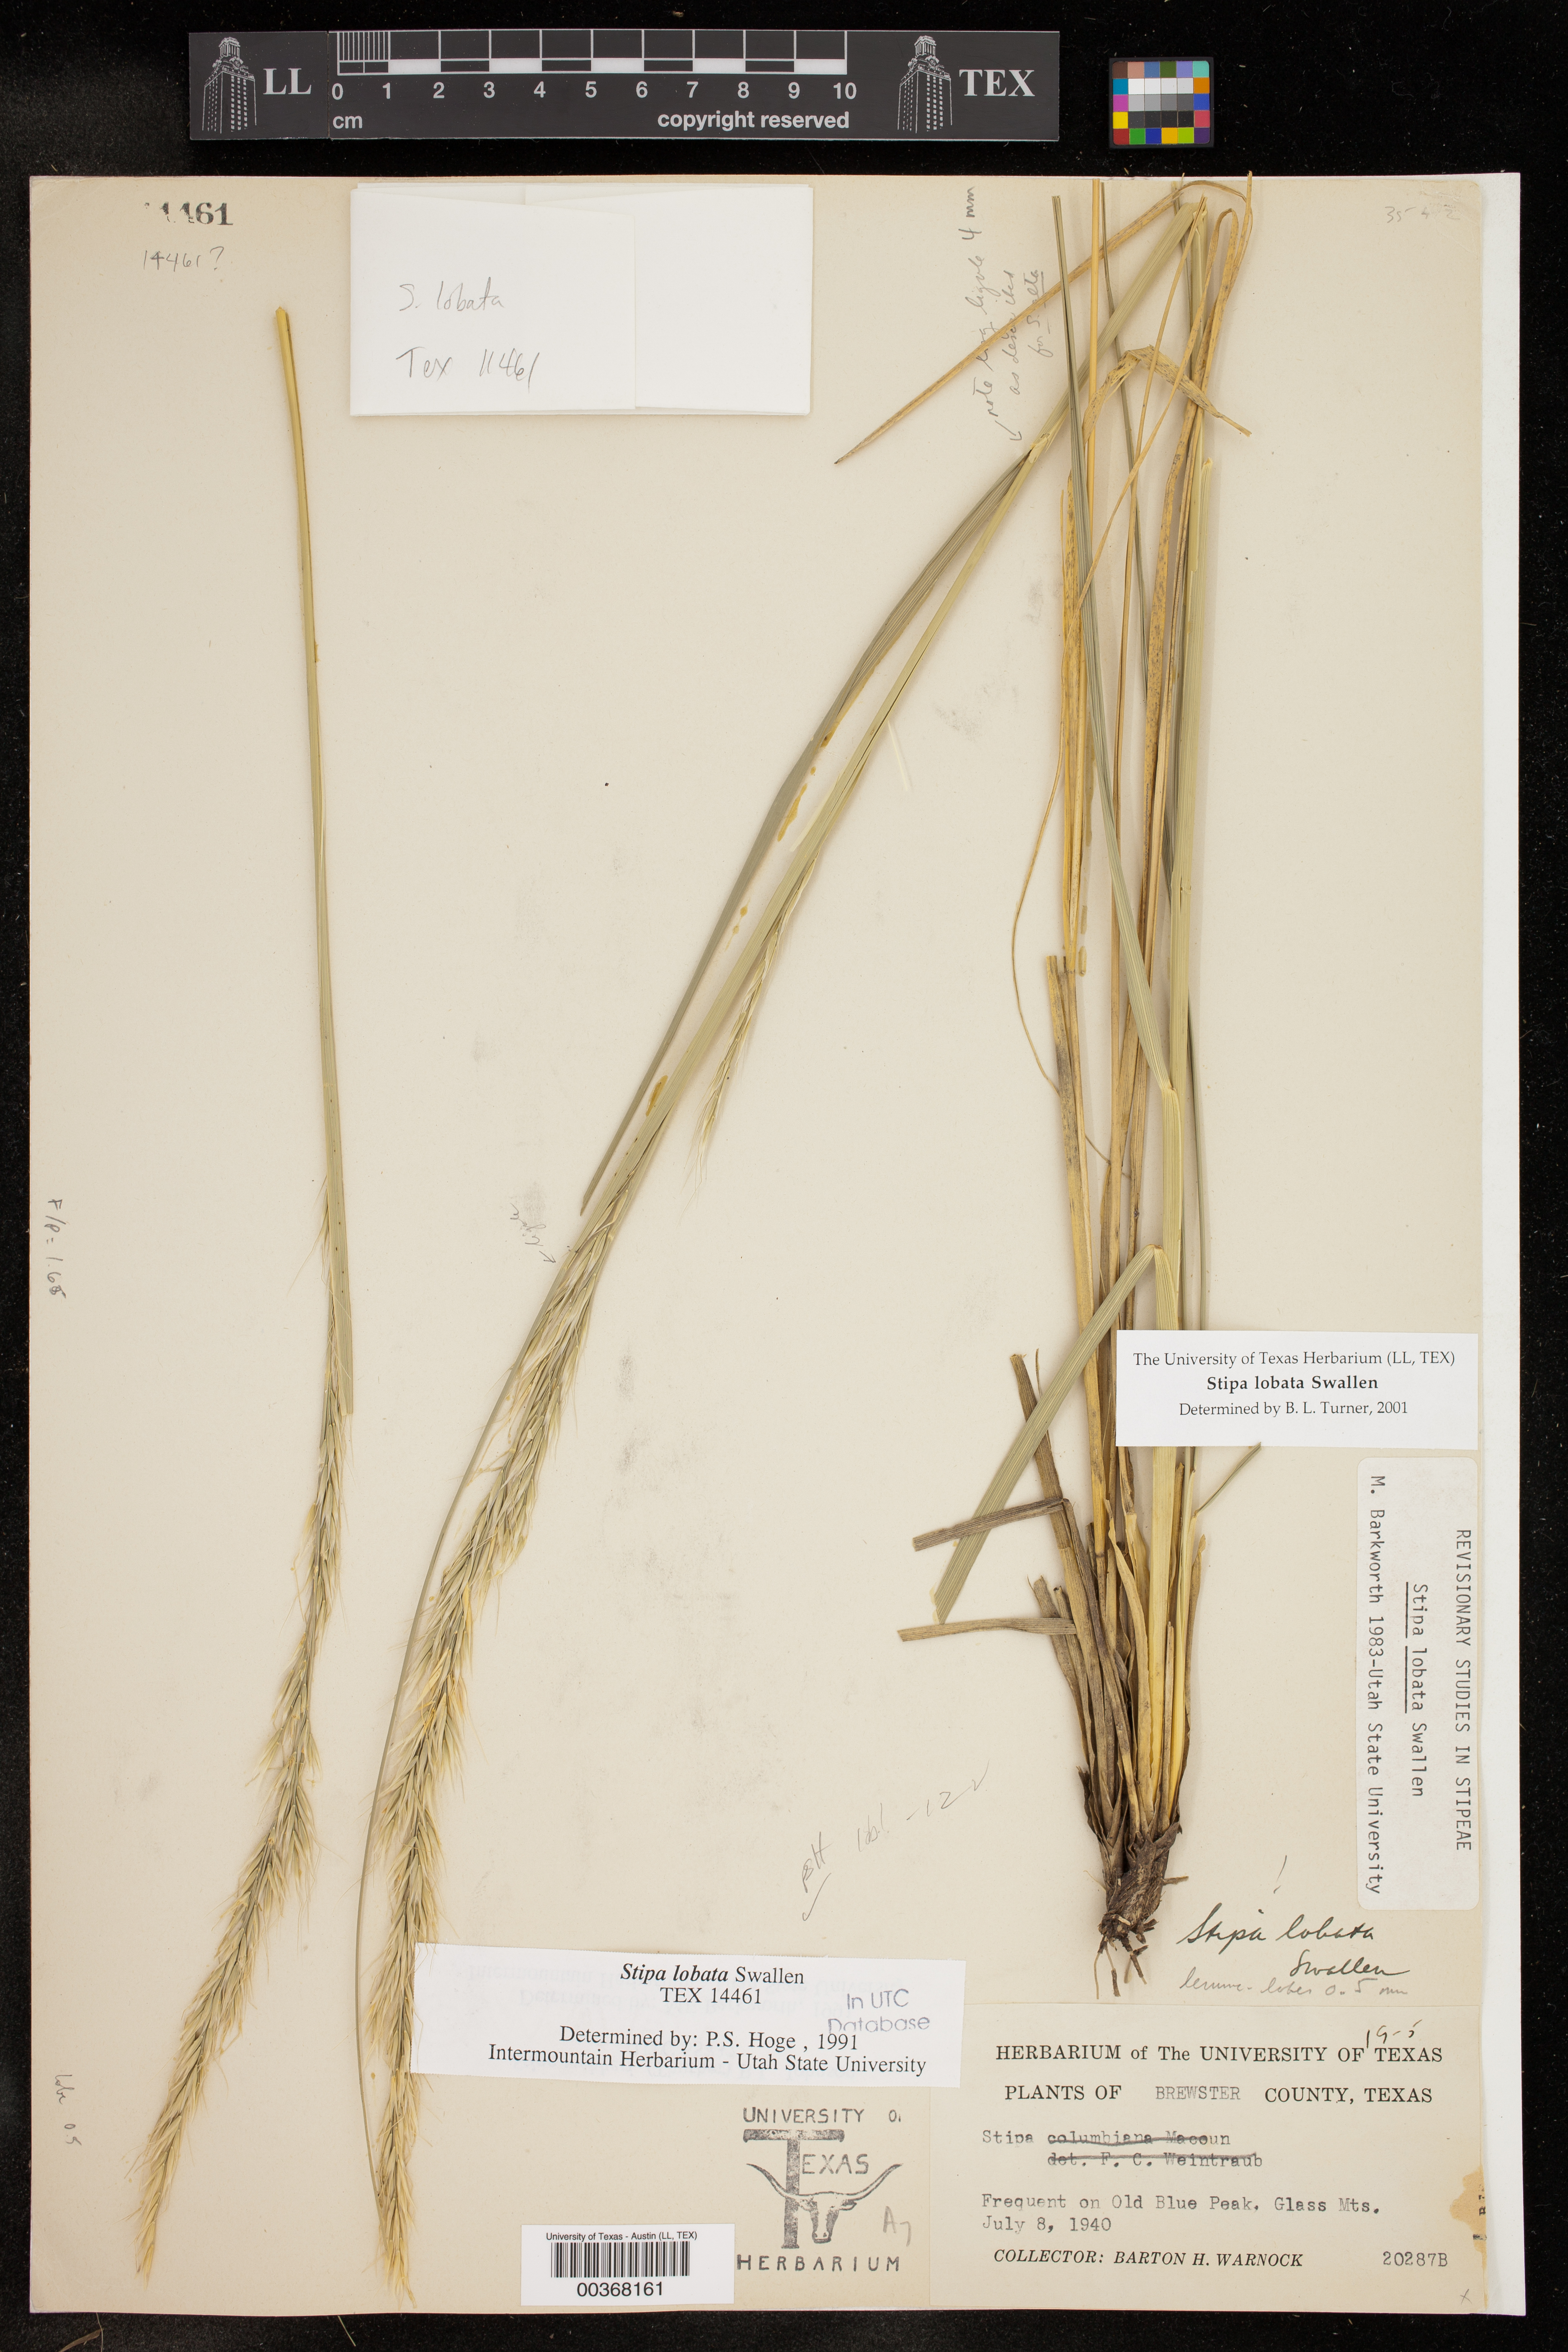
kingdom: Plantae
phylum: Tracheophyta
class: Liliopsida
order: Poales
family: Poaceae
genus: Eriocoma
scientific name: Eriocoma lobata
